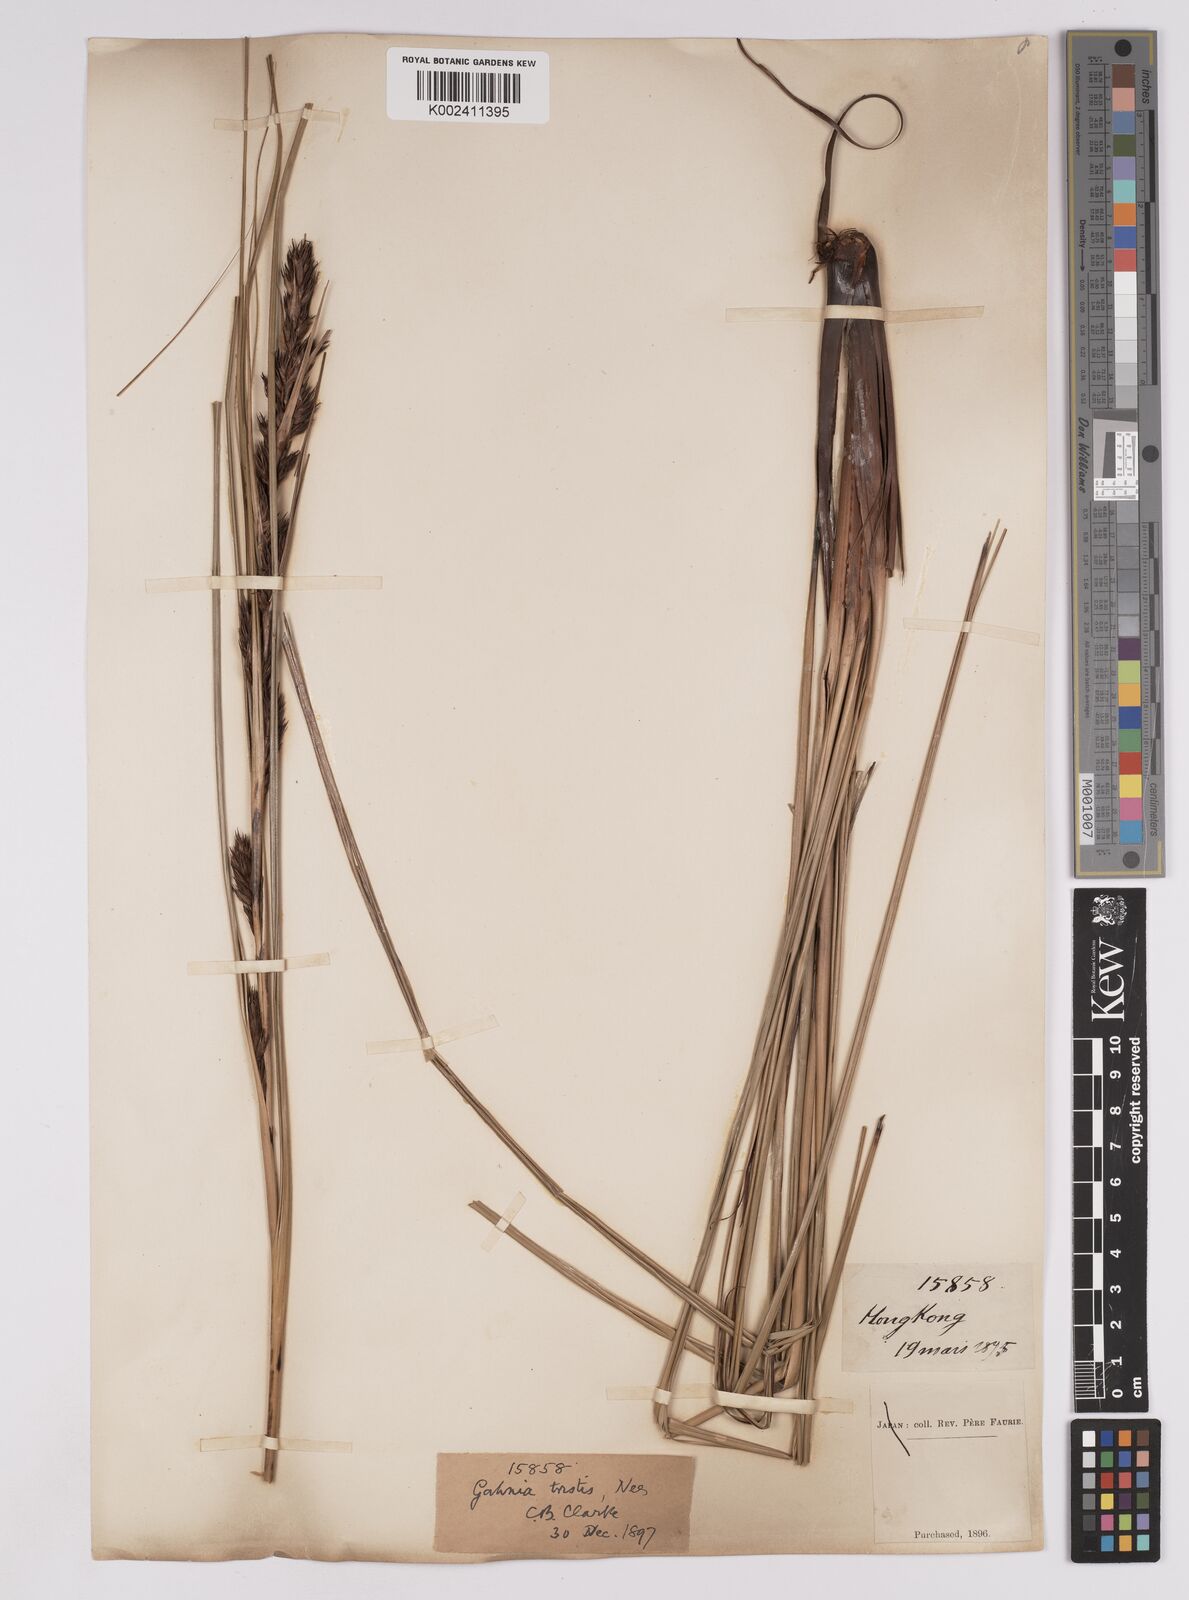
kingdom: Plantae
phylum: Tracheophyta
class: Liliopsida
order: Poales
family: Cyperaceae
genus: Gahnia
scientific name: Gahnia tristis
